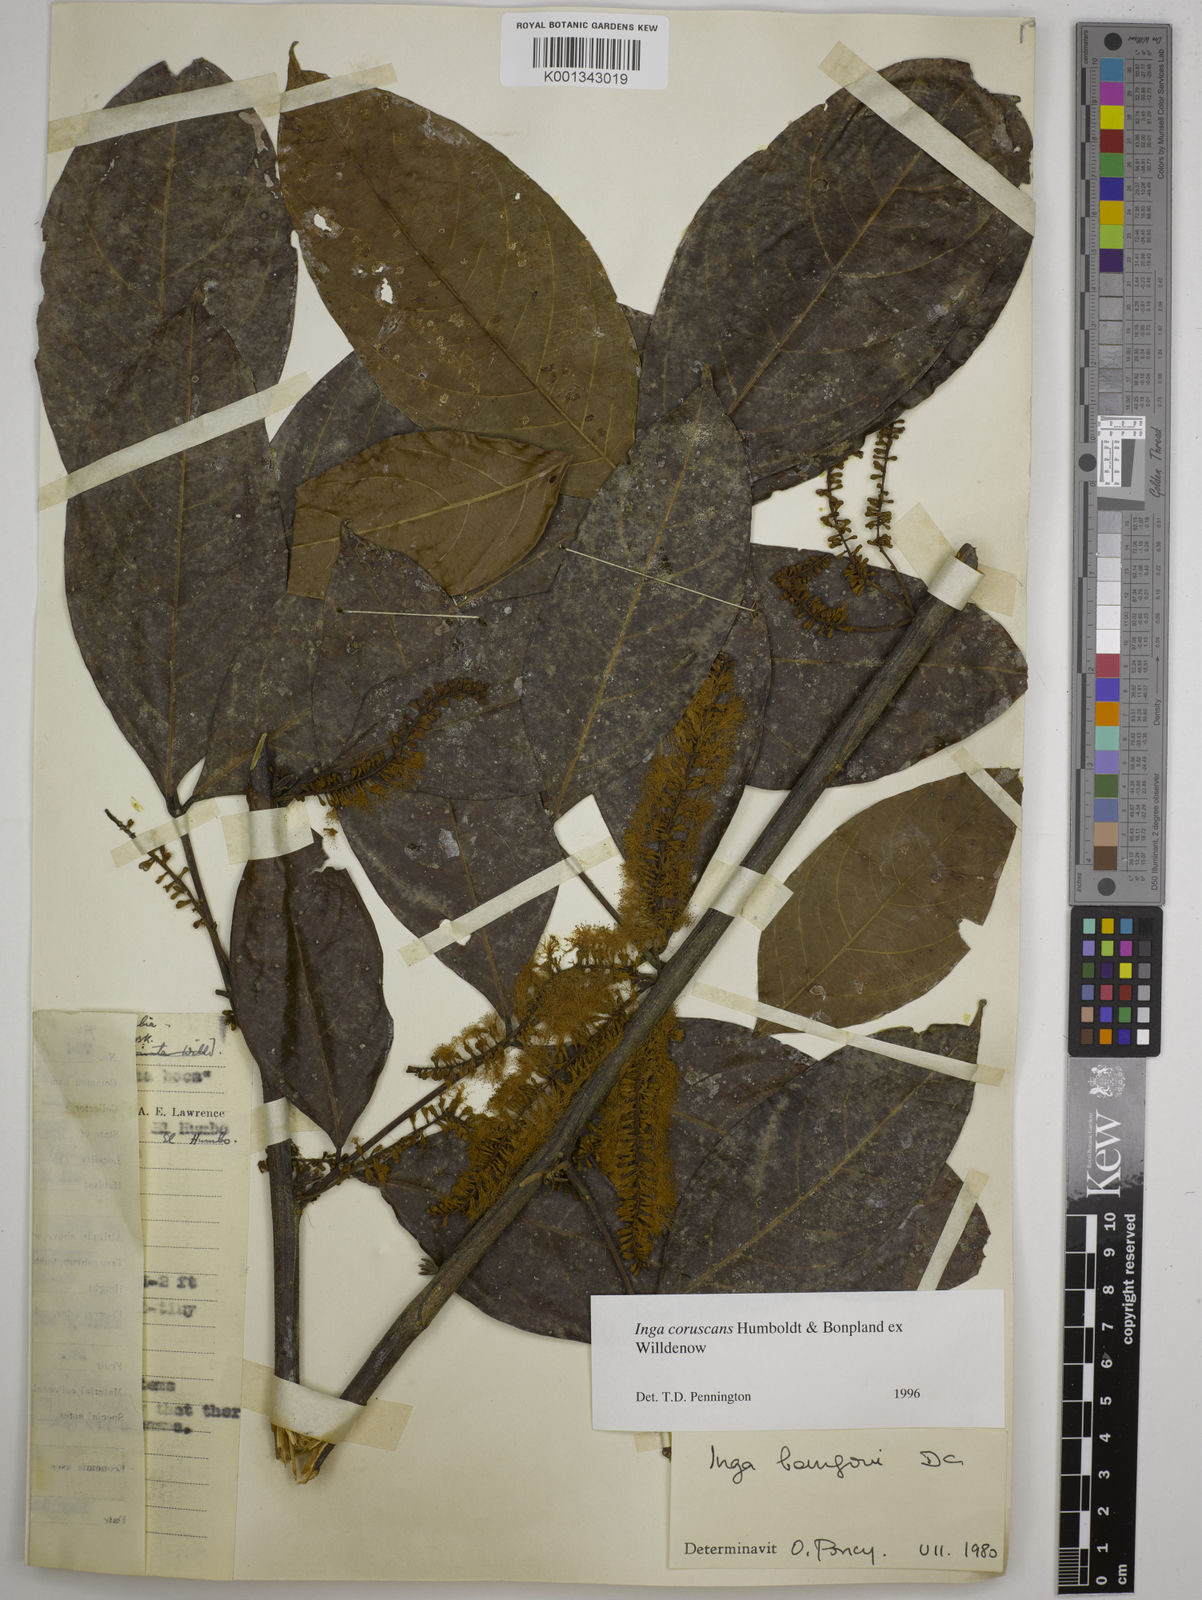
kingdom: Plantae
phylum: Tracheophyta
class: Magnoliopsida
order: Fabales
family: Fabaceae
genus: Inga
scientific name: Inga coruscans
